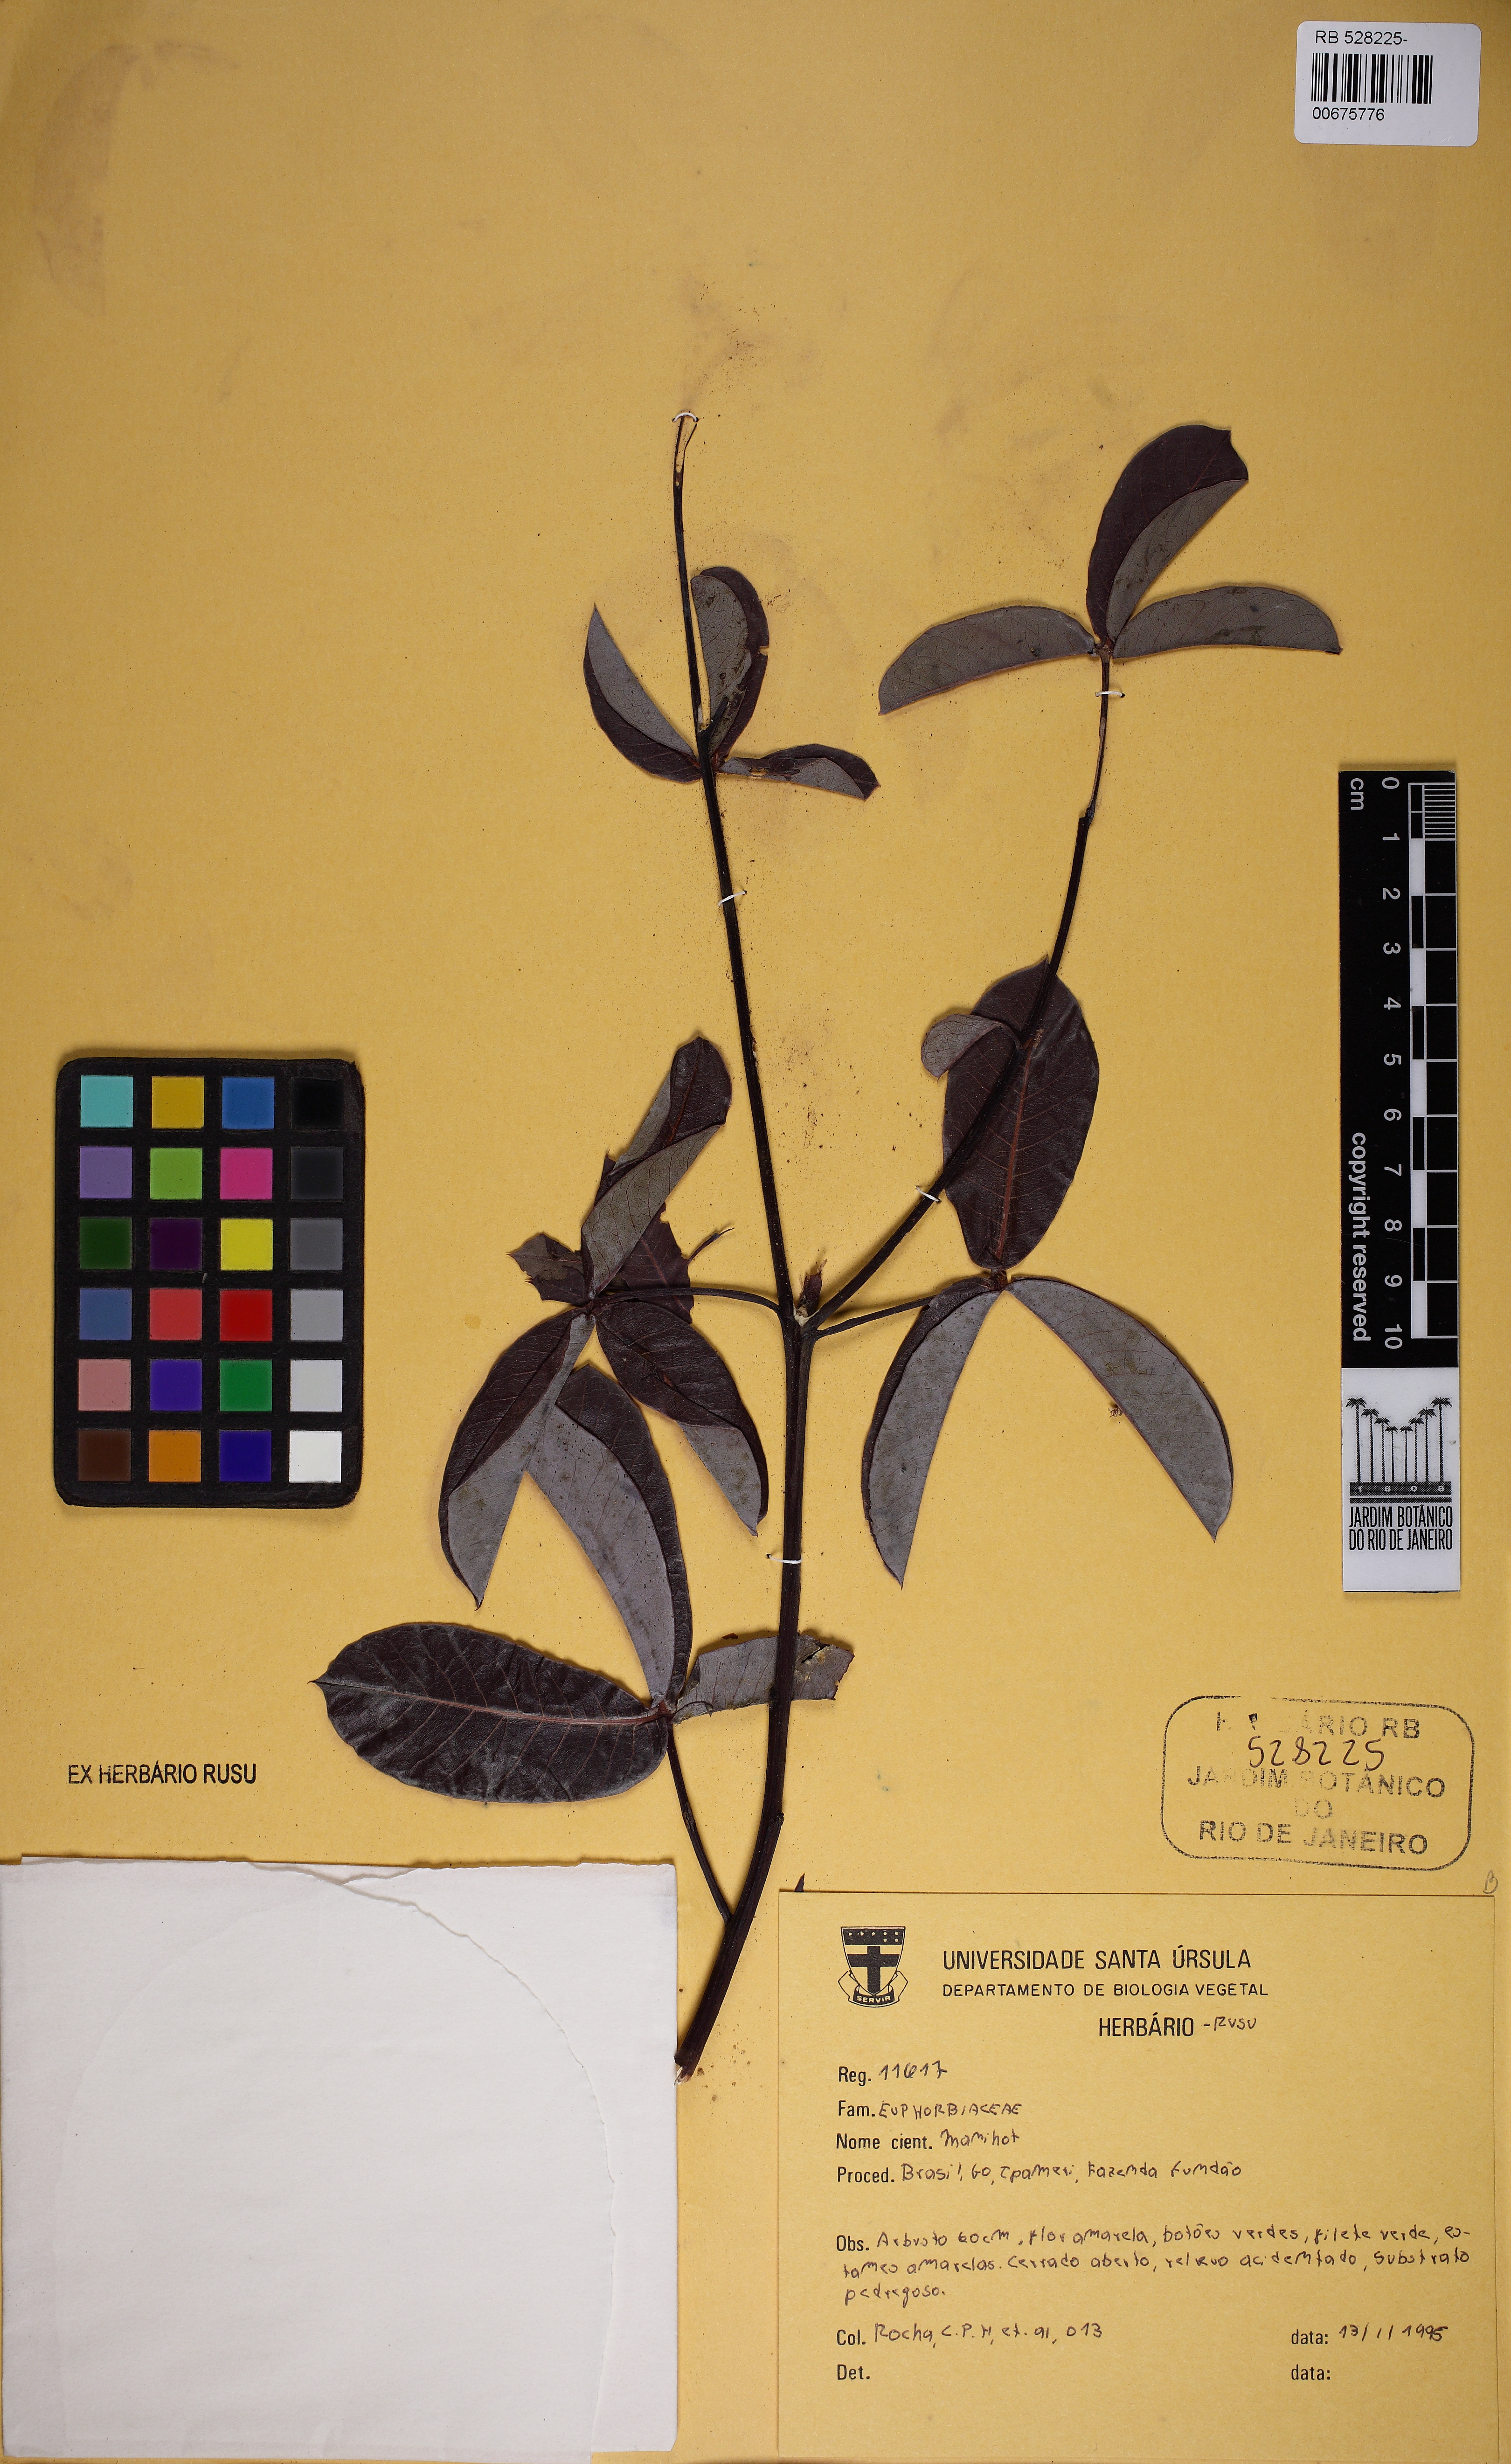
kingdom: Plantae
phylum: Tracheophyta
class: Magnoliopsida
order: Malpighiales
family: Euphorbiaceae
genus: Manihot
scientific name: Manihot divergens
